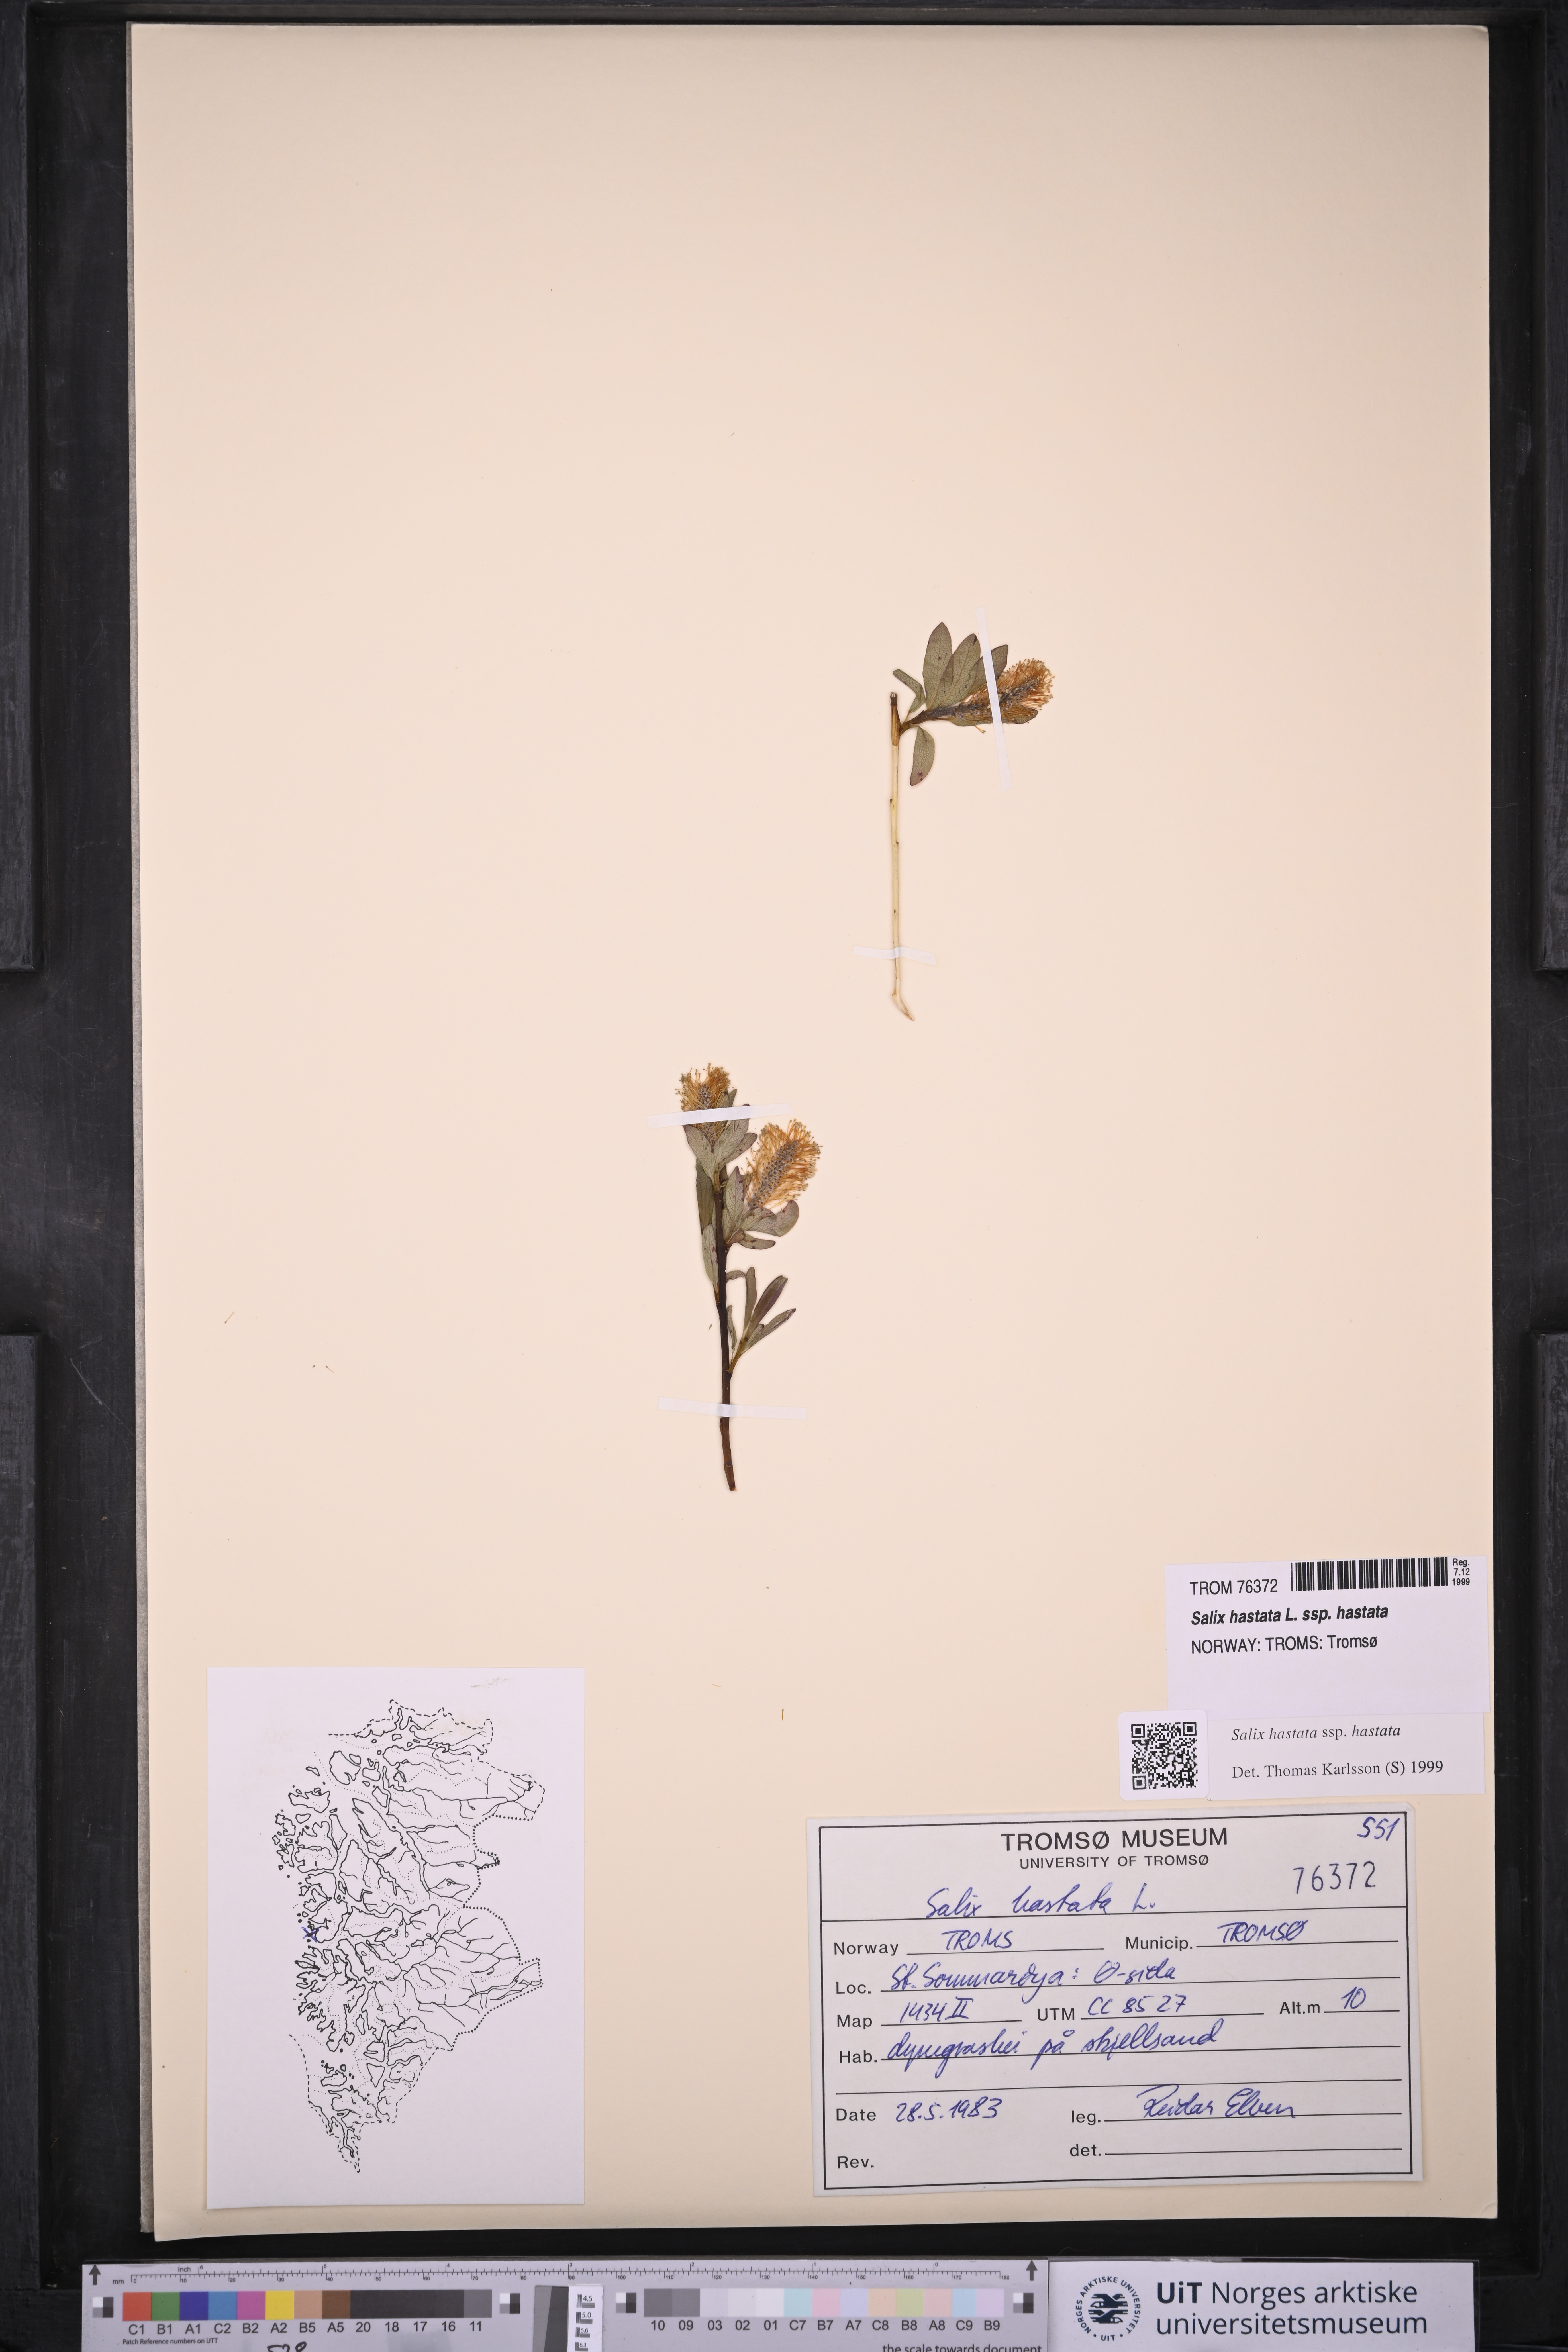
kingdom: Plantae
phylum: Tracheophyta
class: Magnoliopsida
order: Malpighiales
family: Salicaceae
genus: Salix
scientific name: Salix hastata
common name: Halberd willow
